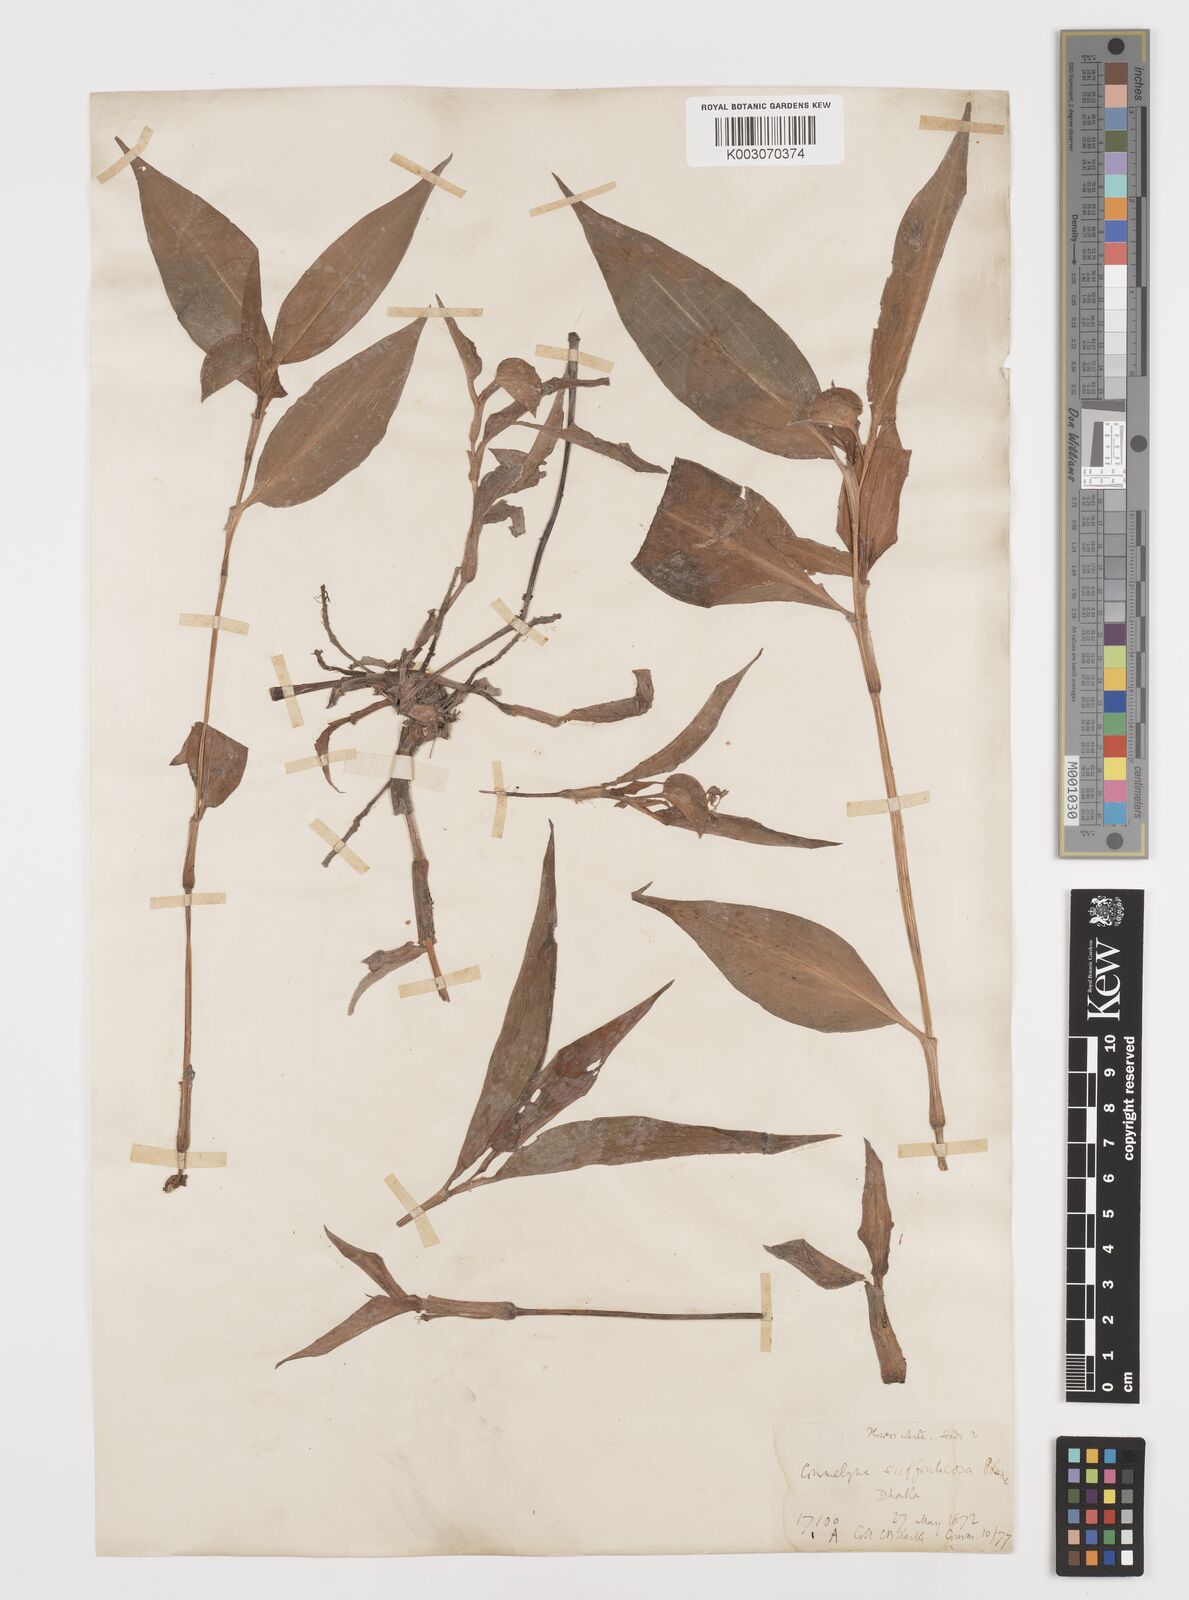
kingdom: Plantae
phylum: Tracheophyta
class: Liliopsida
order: Commelinales
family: Commelinaceae
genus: Commelina
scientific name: Commelina suffruticosa
